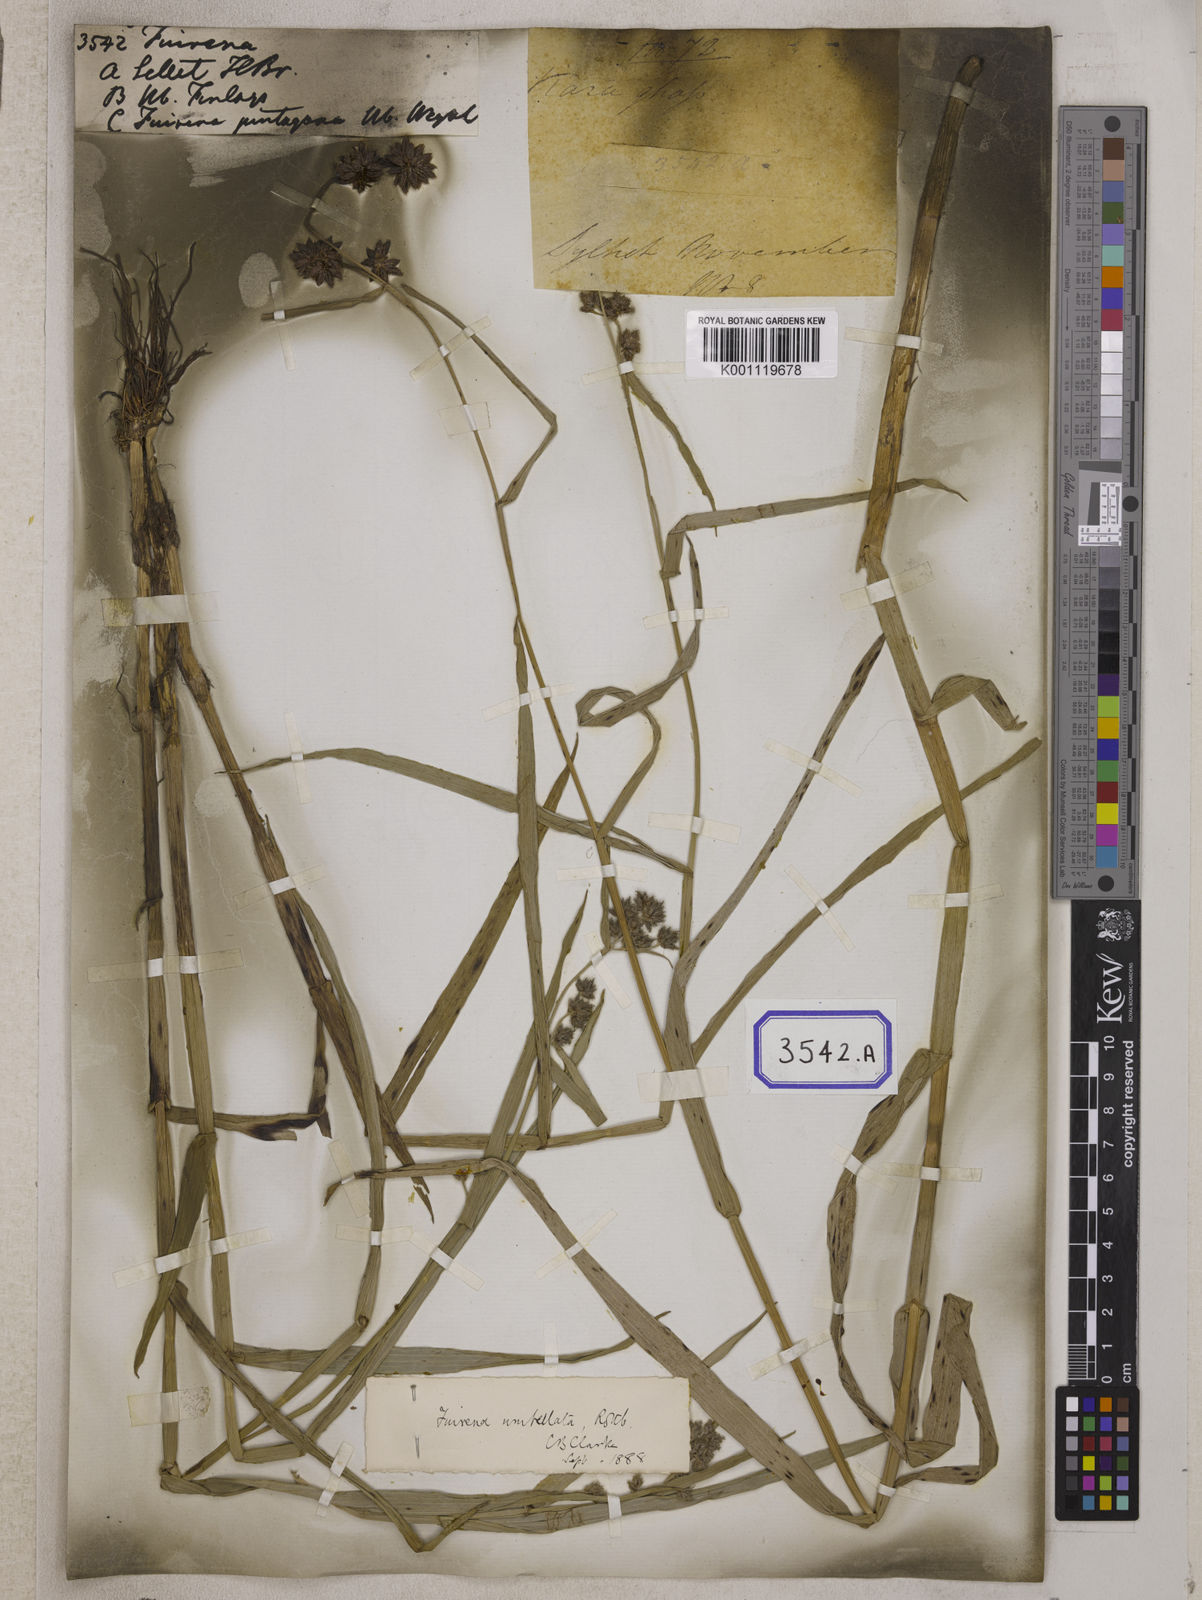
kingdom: Plantae
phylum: Tracheophyta
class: Liliopsida
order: Poales
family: Cyperaceae
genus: Fuirena
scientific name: Fuirena
